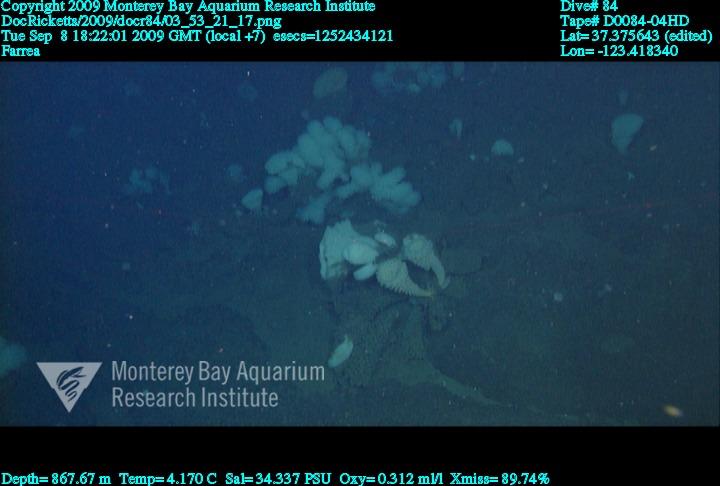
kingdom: Animalia
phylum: Porifera
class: Hexactinellida
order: Sceptrulophora
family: Farreidae
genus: Farrea
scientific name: Farrea
